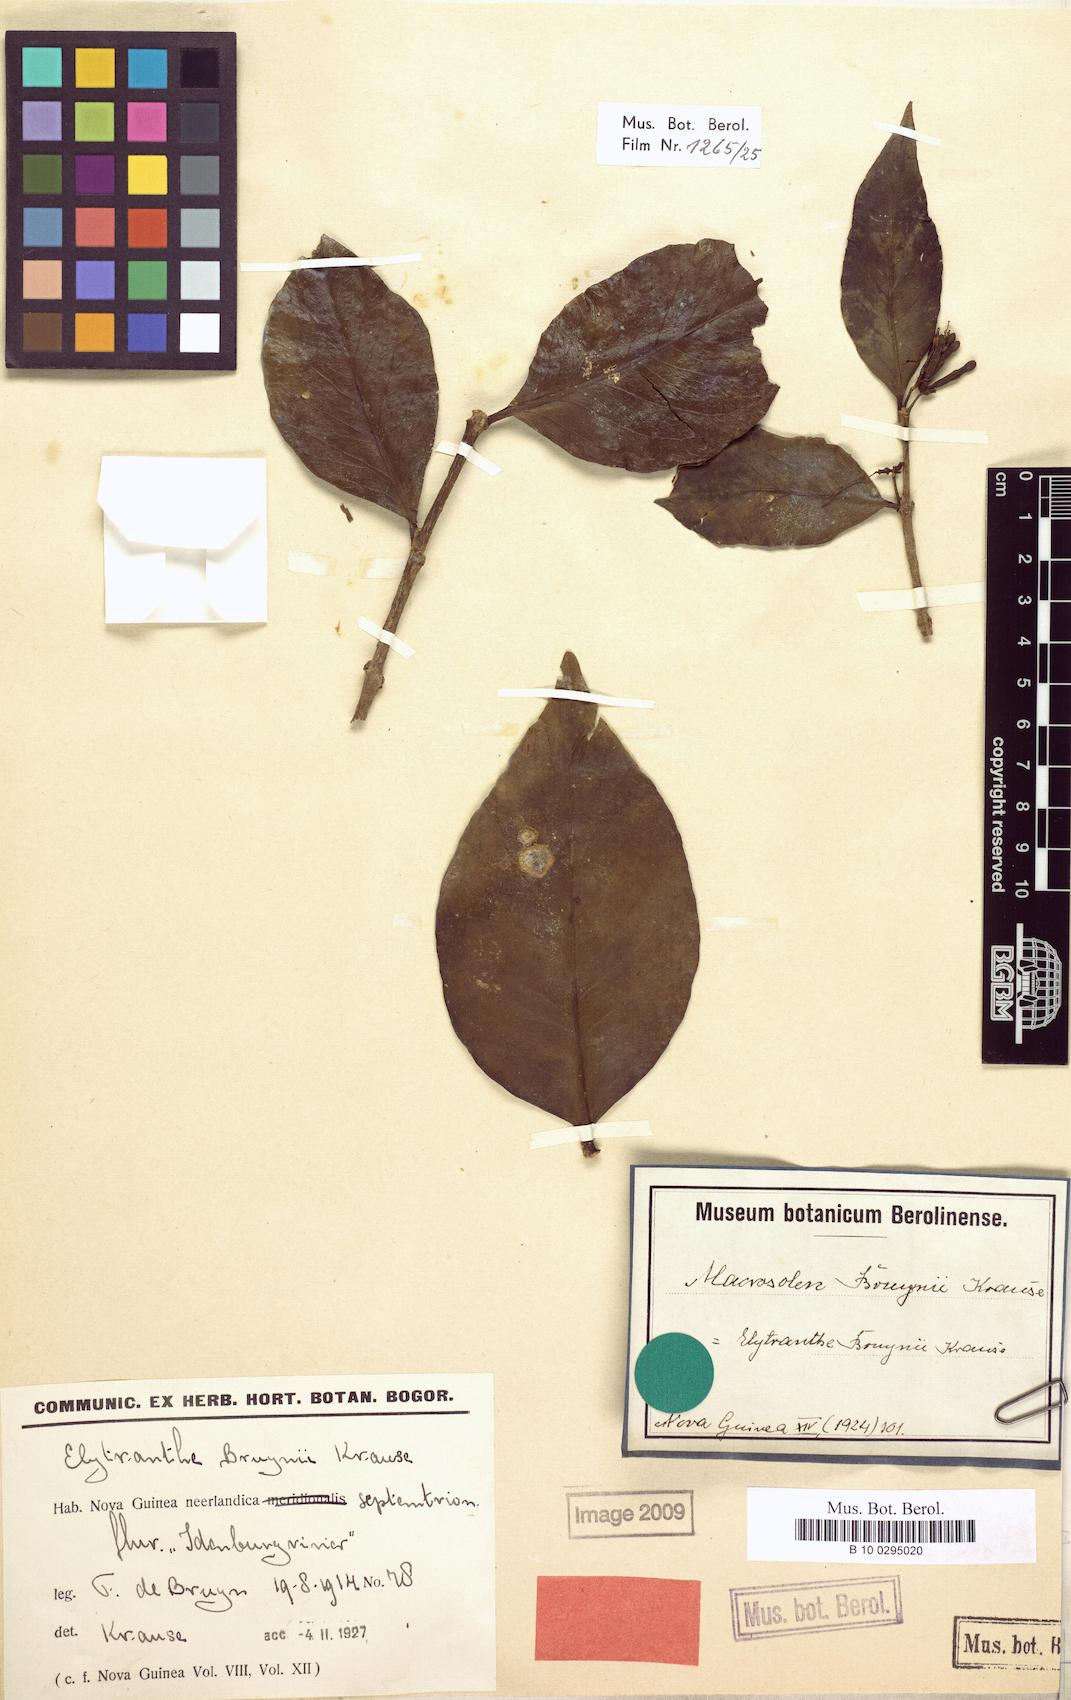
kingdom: Plantae
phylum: Tracheophyta
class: Magnoliopsida
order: Santalales
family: Loranthaceae
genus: Macrosolen
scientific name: Macrosolen cochinchinensis
